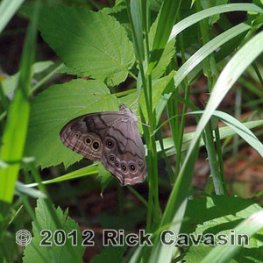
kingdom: Animalia
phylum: Arthropoda
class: Insecta
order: Lepidoptera
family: Nymphalidae
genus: Lethe
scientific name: Lethe anthedon
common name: Northern Pearly-Eye
